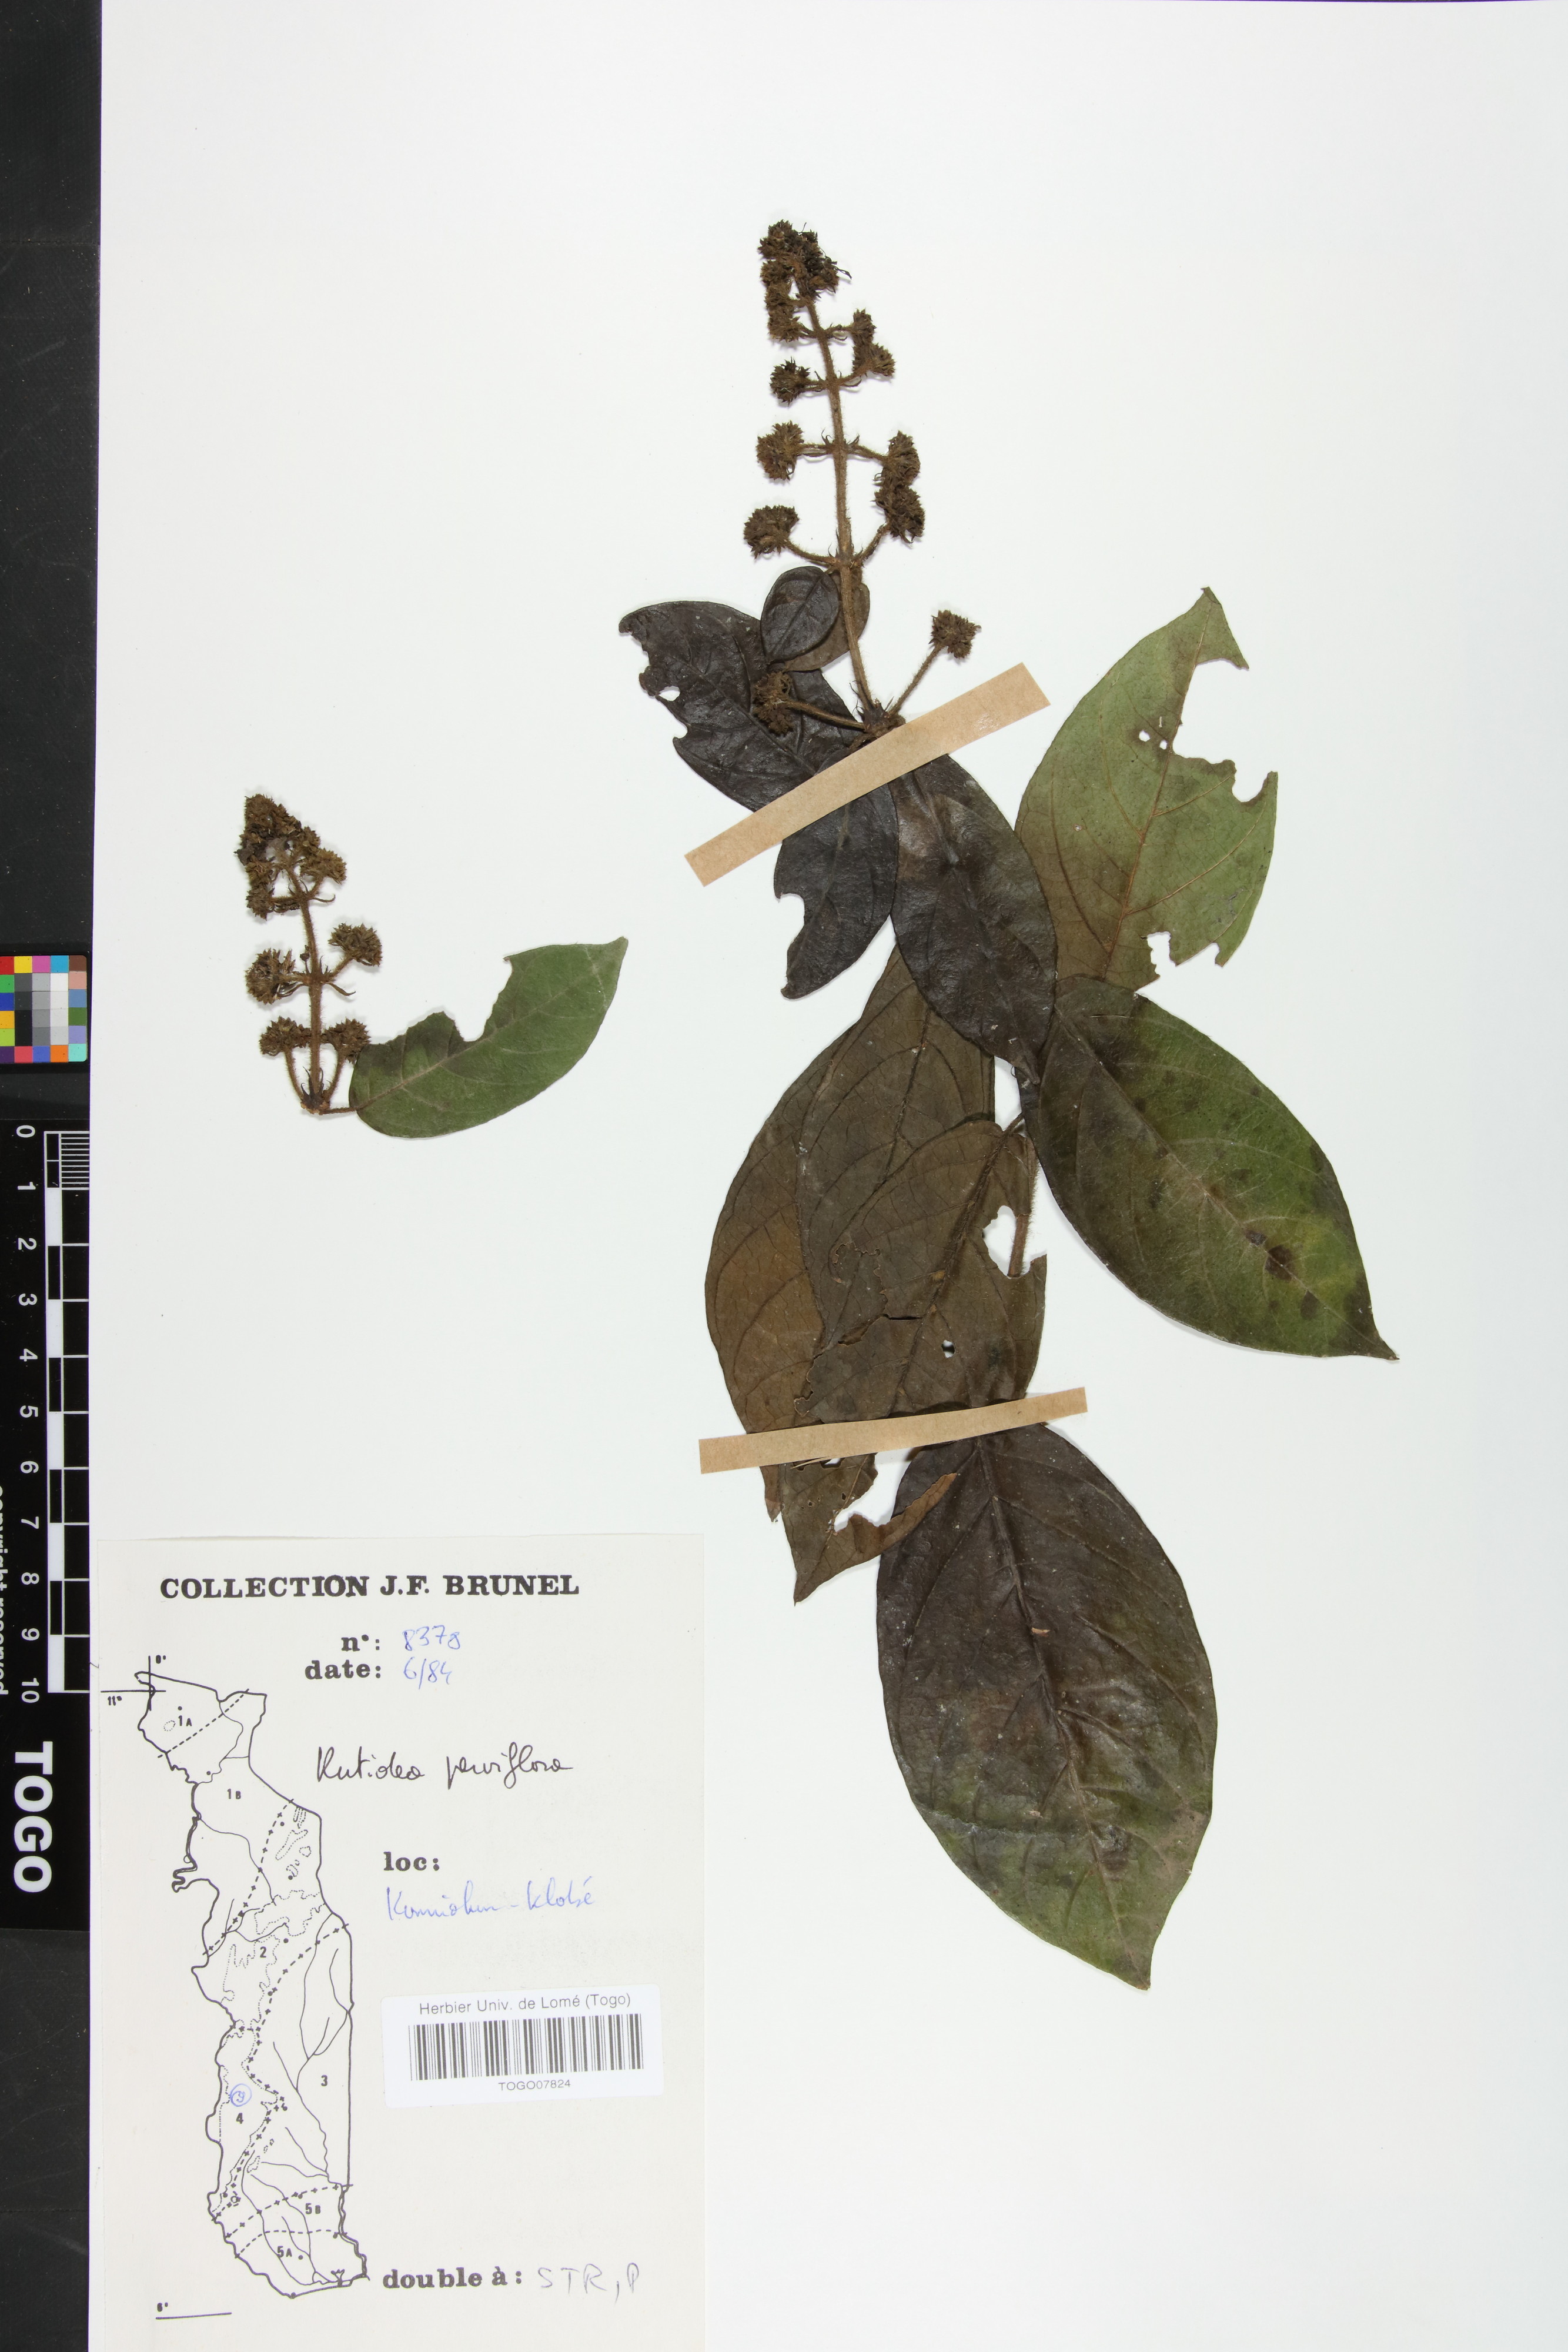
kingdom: Plantae
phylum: Tracheophyta
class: Magnoliopsida
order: Gentianales
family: Rubiaceae
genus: Rutidea
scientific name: Rutidea parviflora
